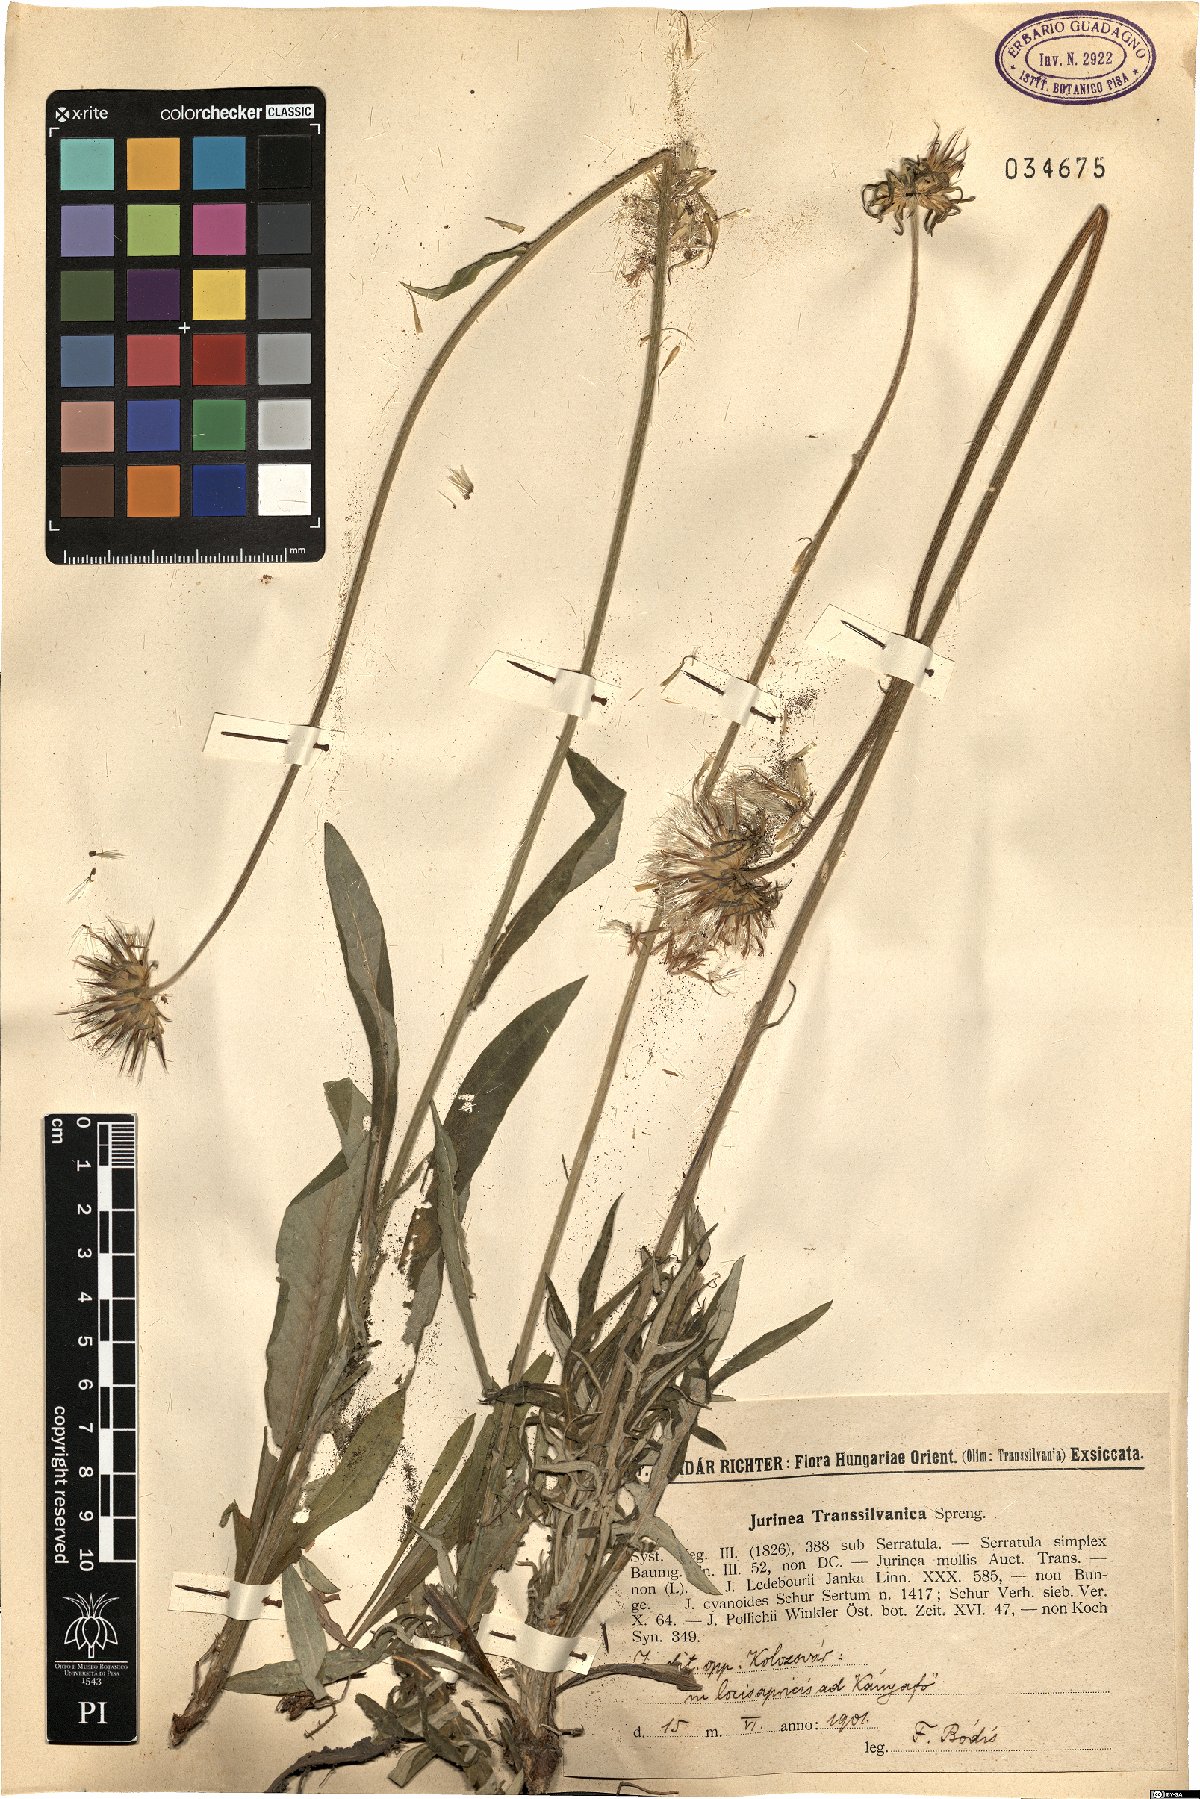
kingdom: Plantae
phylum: Tracheophyta
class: Magnoliopsida
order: Asterales
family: Asteraceae
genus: Jurinea
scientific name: Jurinea transsylvanica
